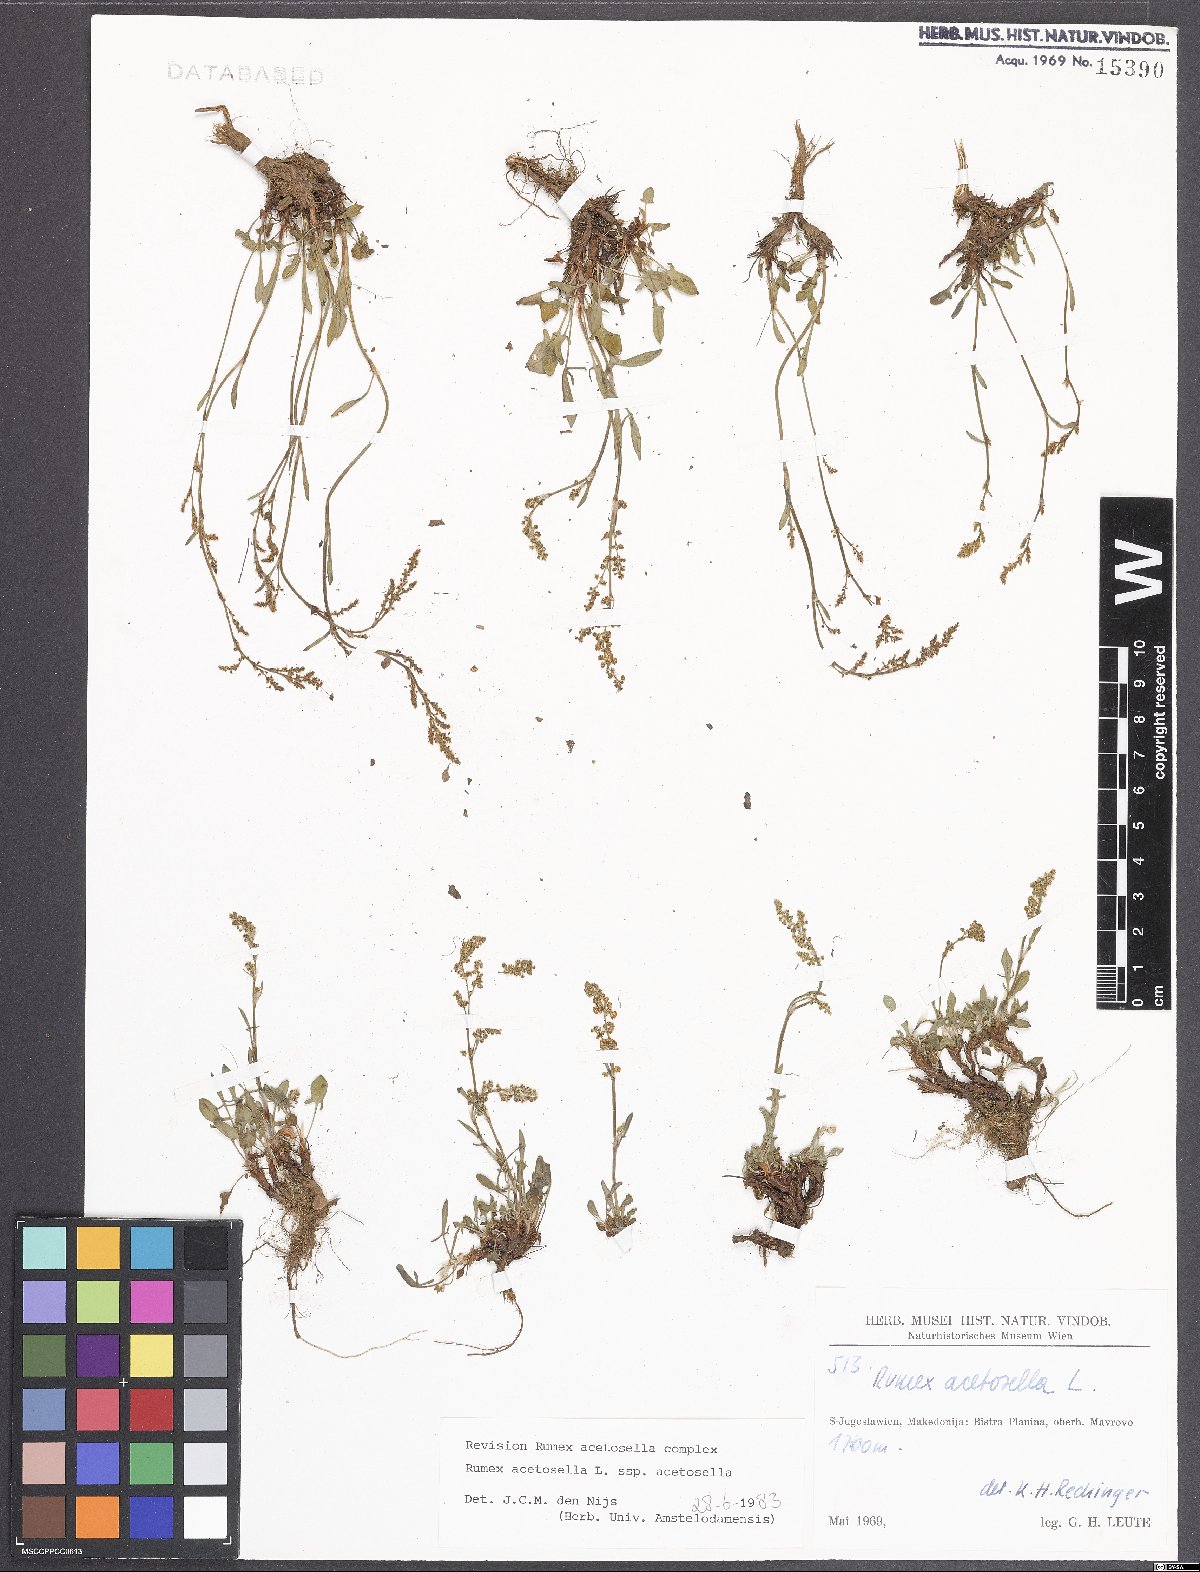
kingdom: Plantae
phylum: Tracheophyta
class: Magnoliopsida
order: Caryophyllales
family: Polygonaceae
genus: Rumex
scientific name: Rumex acetosella
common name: Common sheep sorrel
